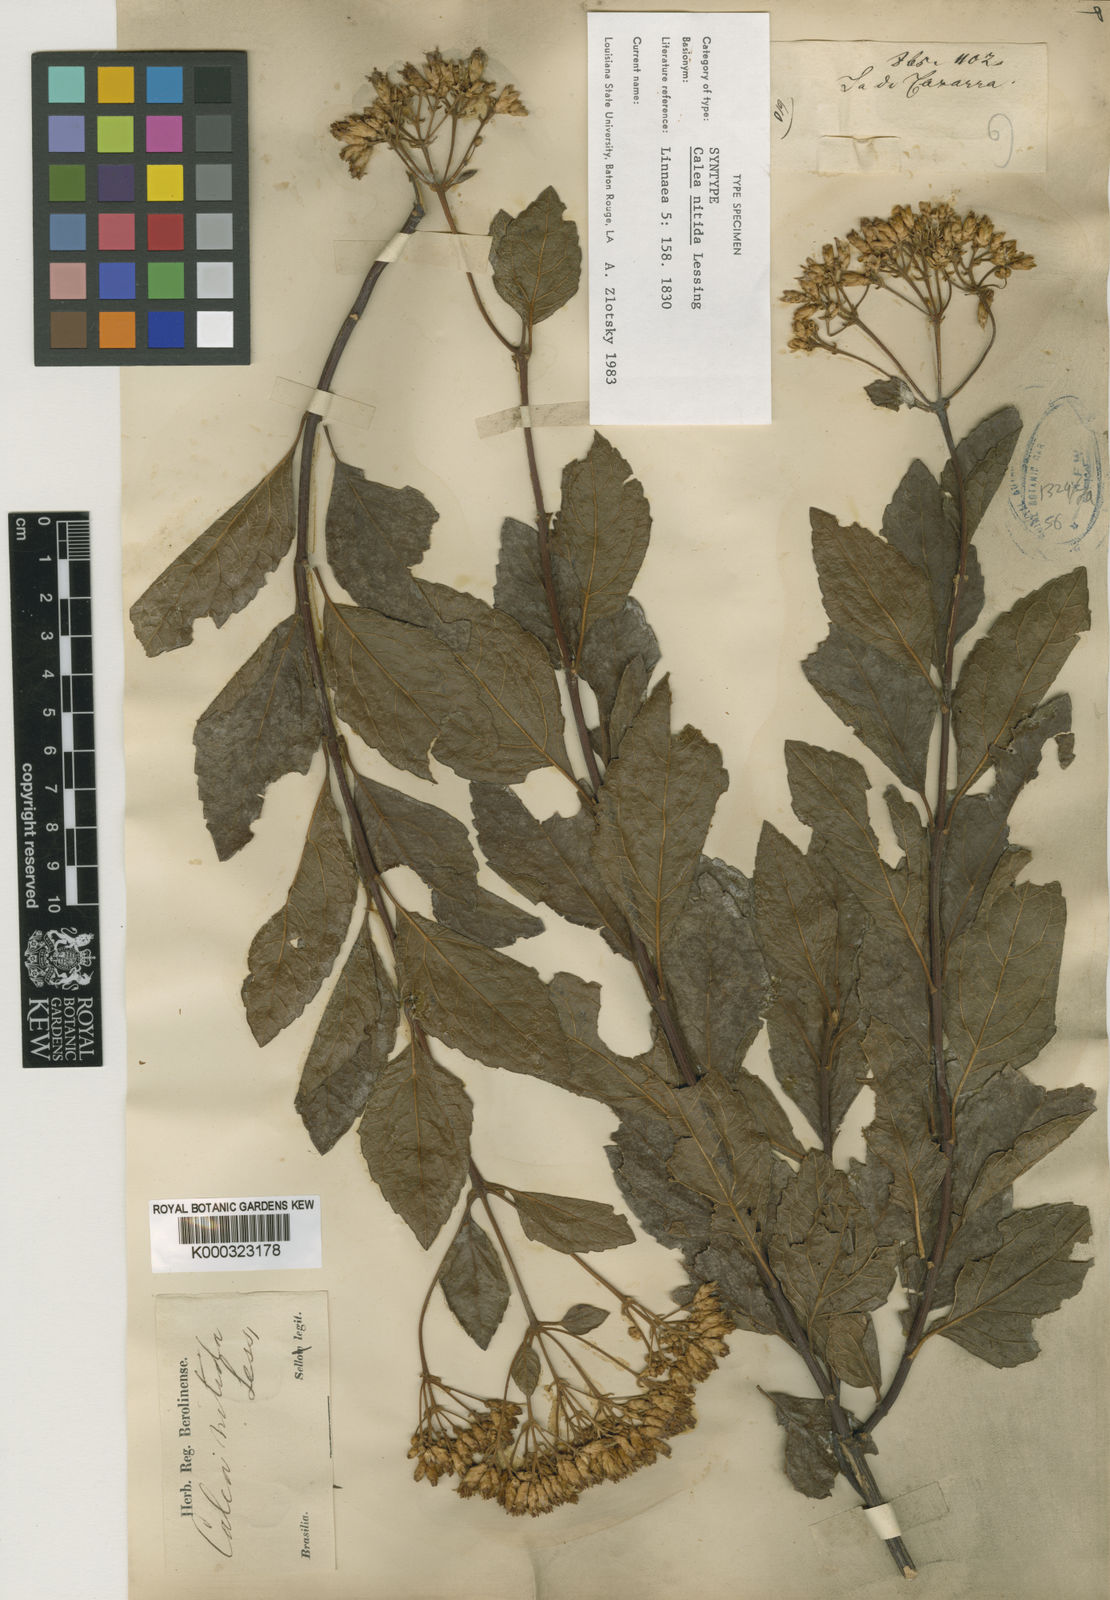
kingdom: Plantae
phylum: Tracheophyta
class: Magnoliopsida
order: Asterales
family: Asteraceae
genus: Calea
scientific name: Calea nitida
